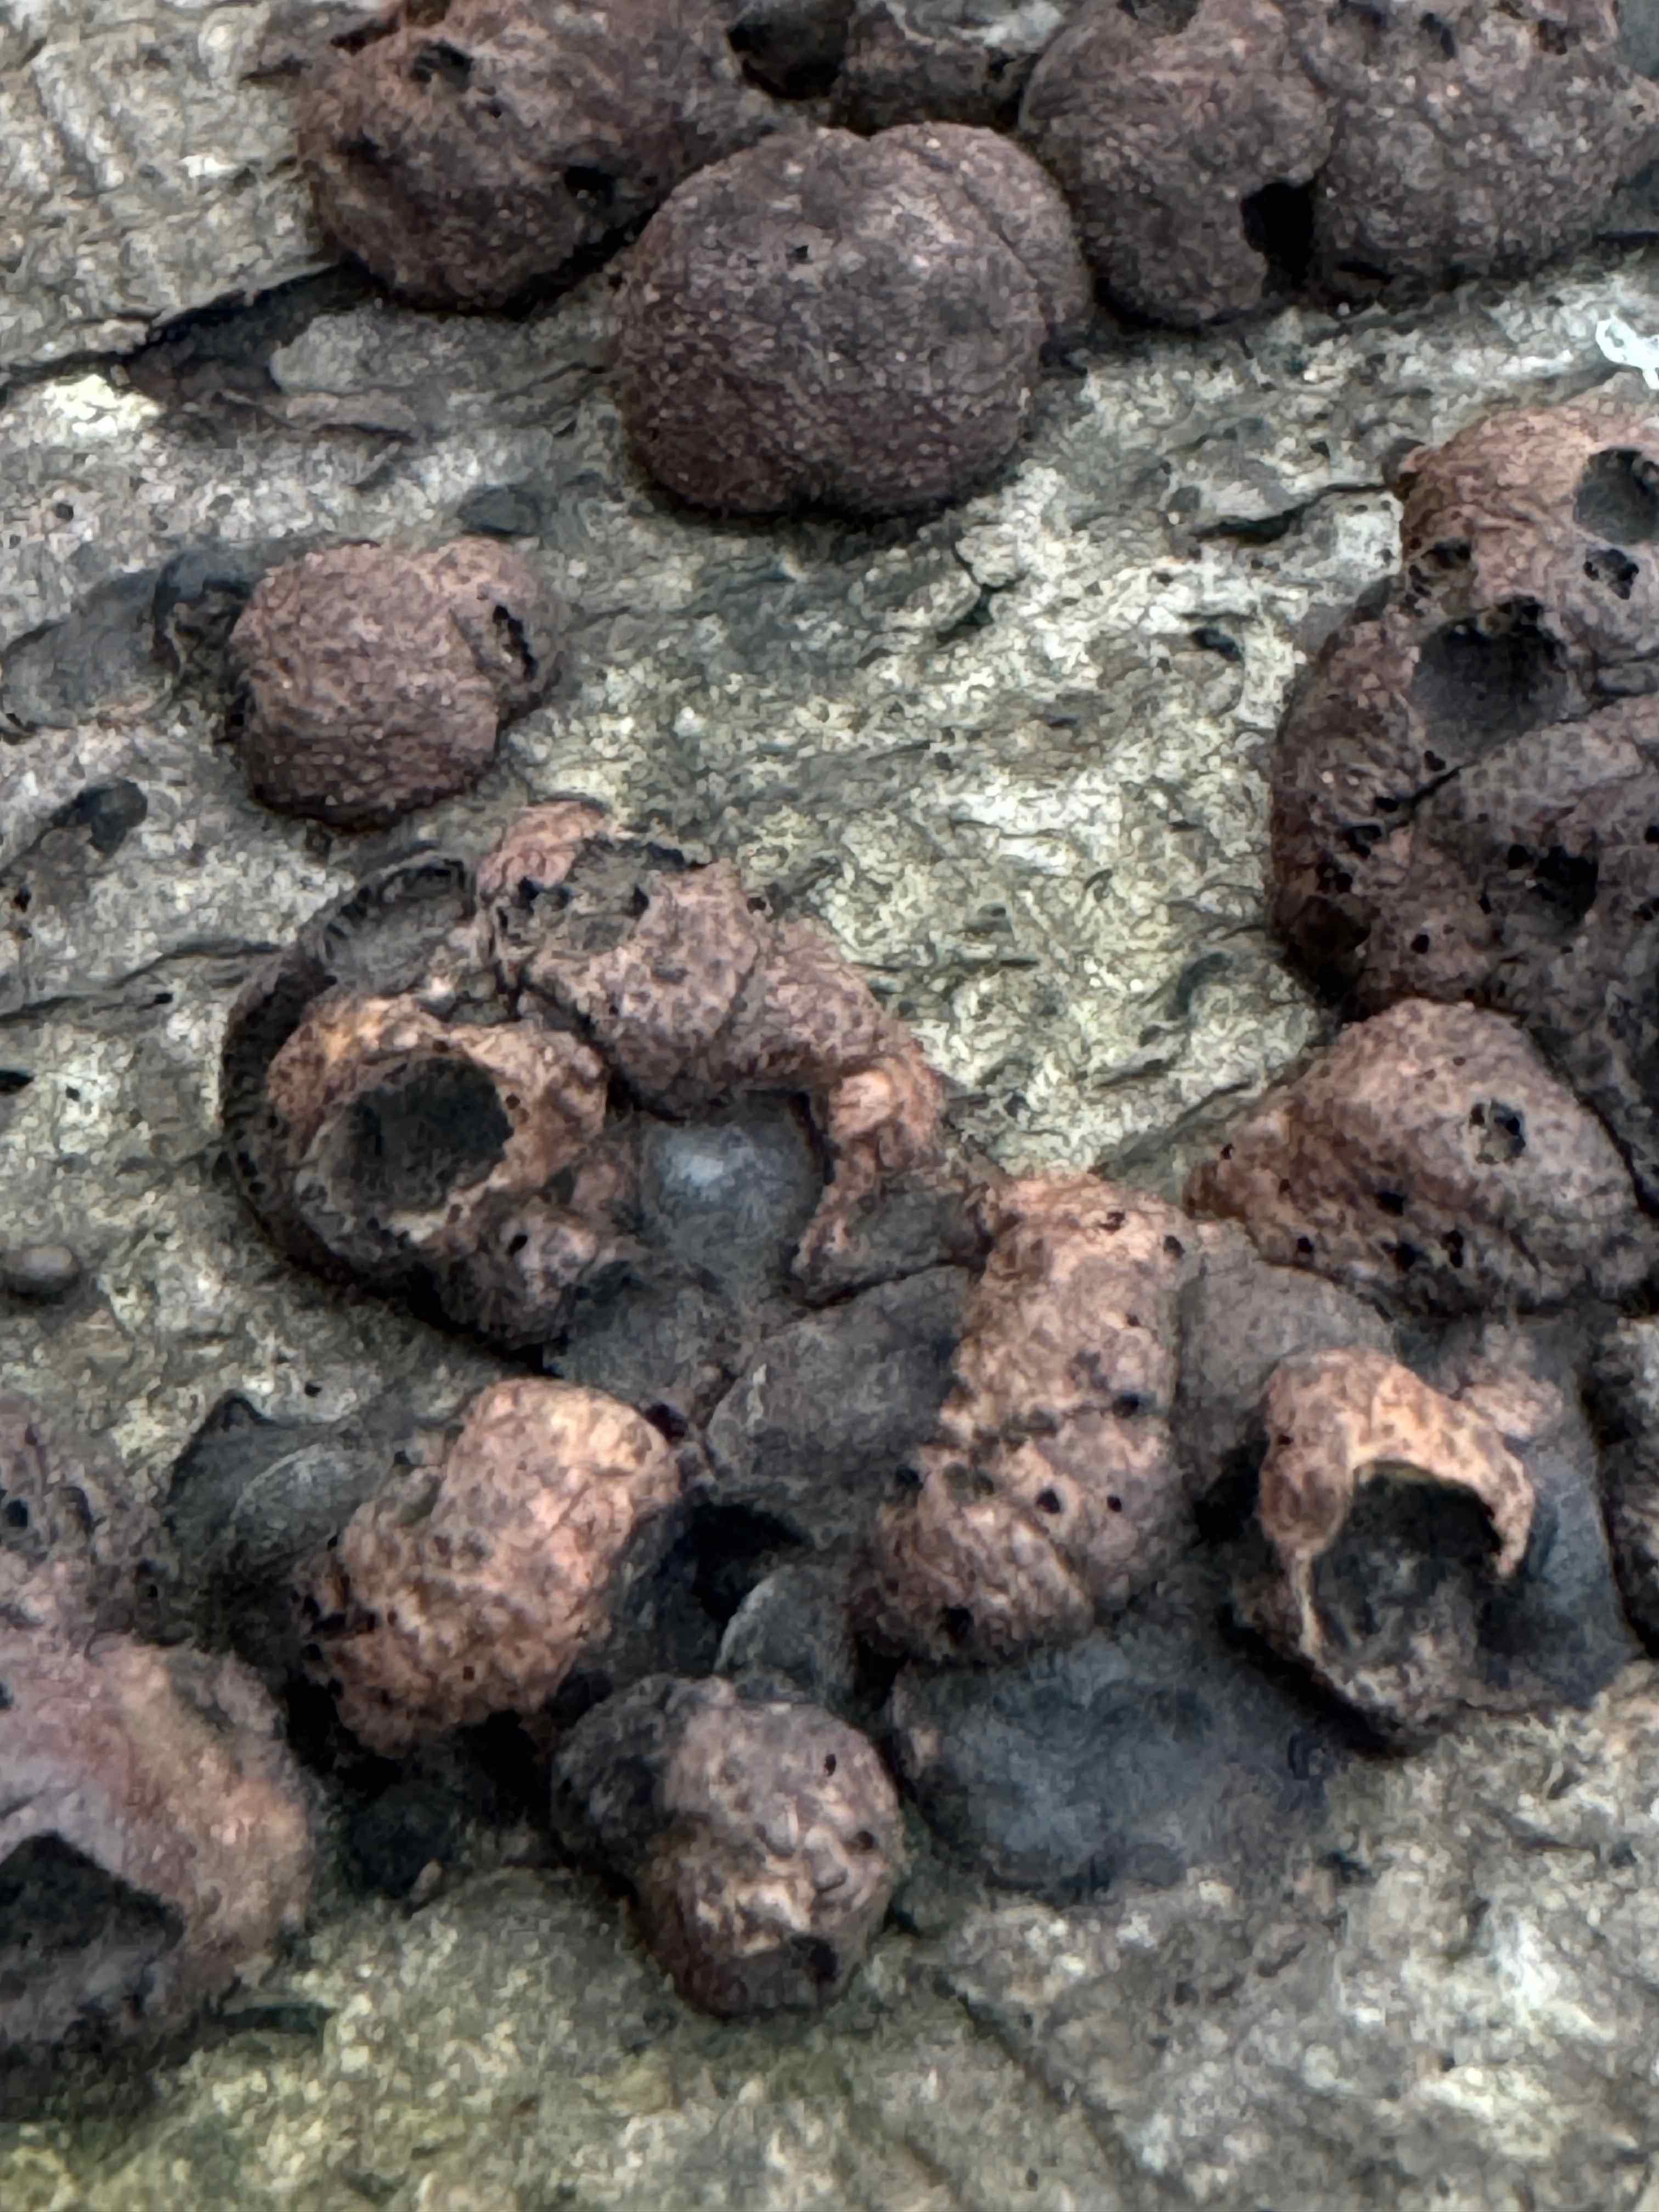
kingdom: Fungi
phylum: Ascomycota
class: Sordariomycetes
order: Xylariales
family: Hypoxylaceae
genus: Hypoxylon
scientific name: Hypoxylon fragiforme
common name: kuljordbær
